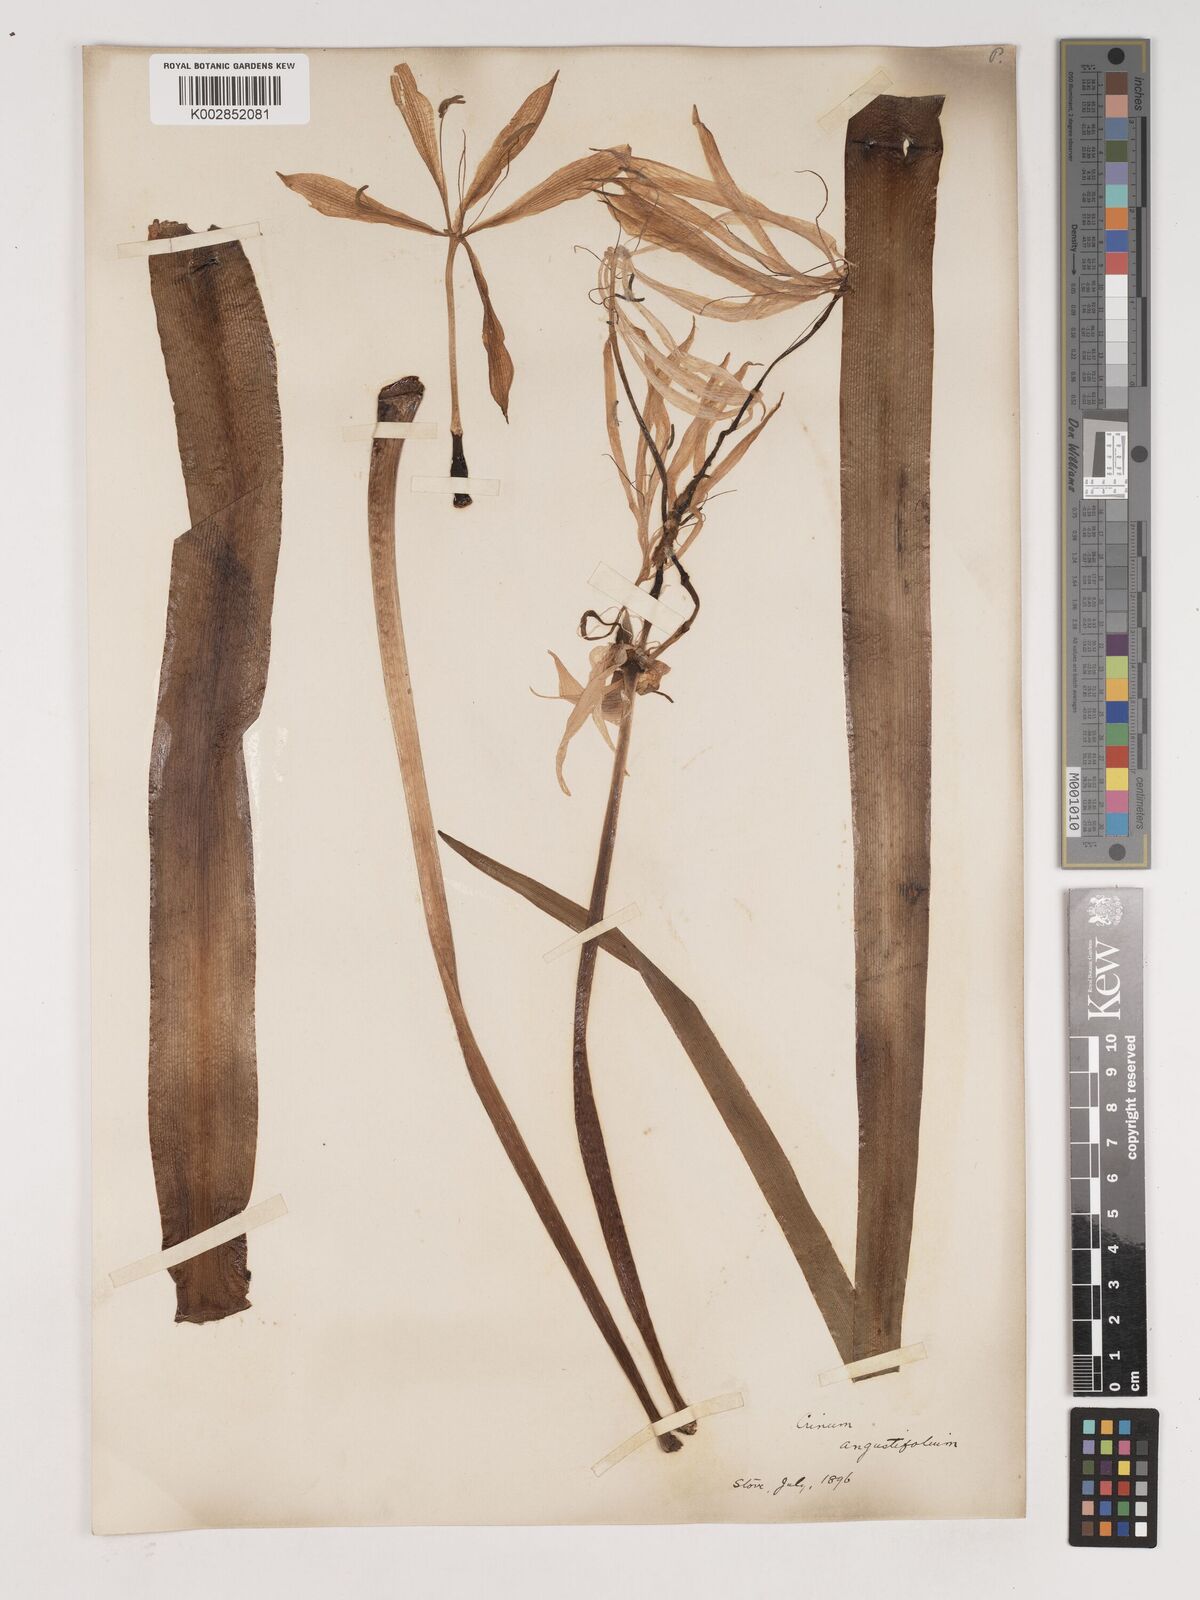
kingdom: Plantae
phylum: Tracheophyta
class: Liliopsida
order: Asparagales
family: Amaryllidaceae
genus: Crinum
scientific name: Crinum arenarium
